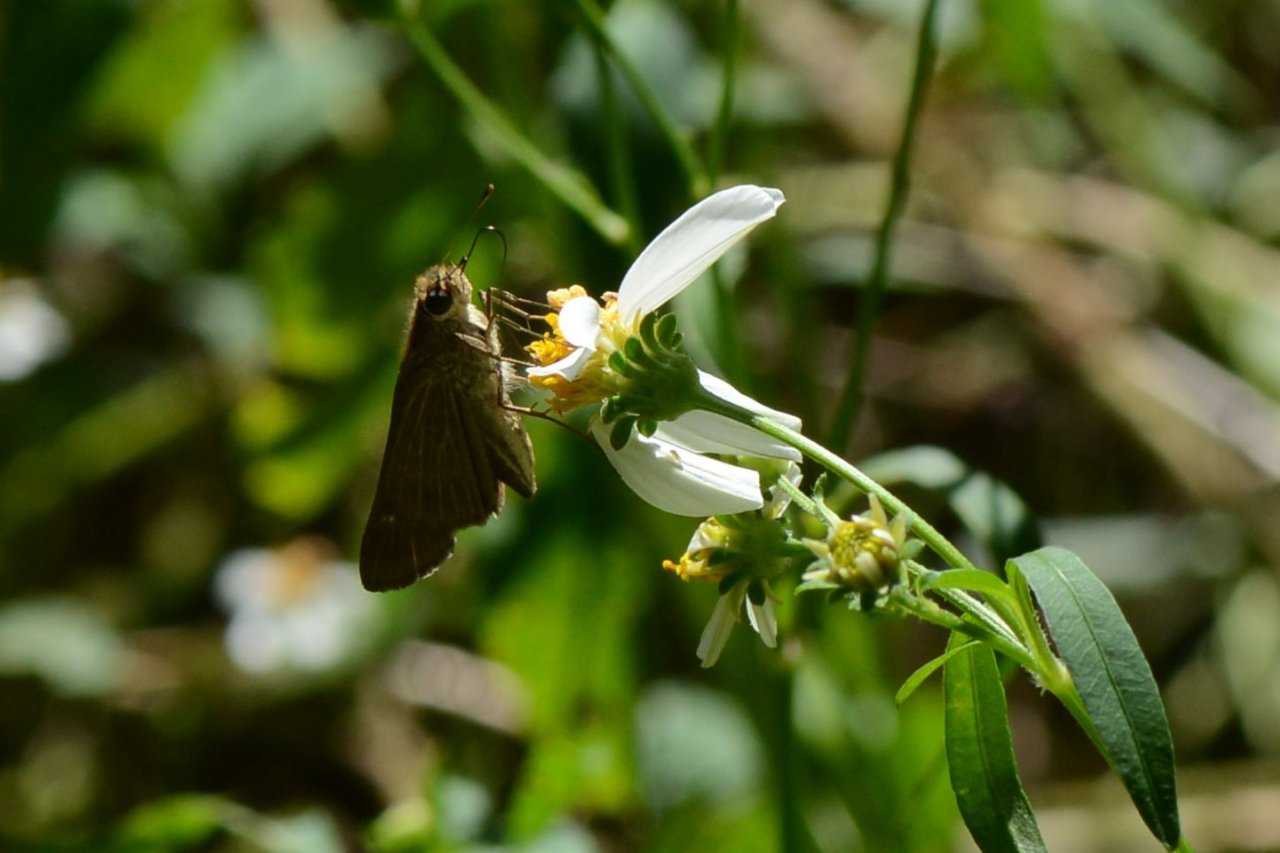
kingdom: Animalia
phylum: Arthropoda
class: Insecta
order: Lepidoptera
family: Hesperiidae
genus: Panoquina
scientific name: Panoquina ocola
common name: Ocola Skipper
